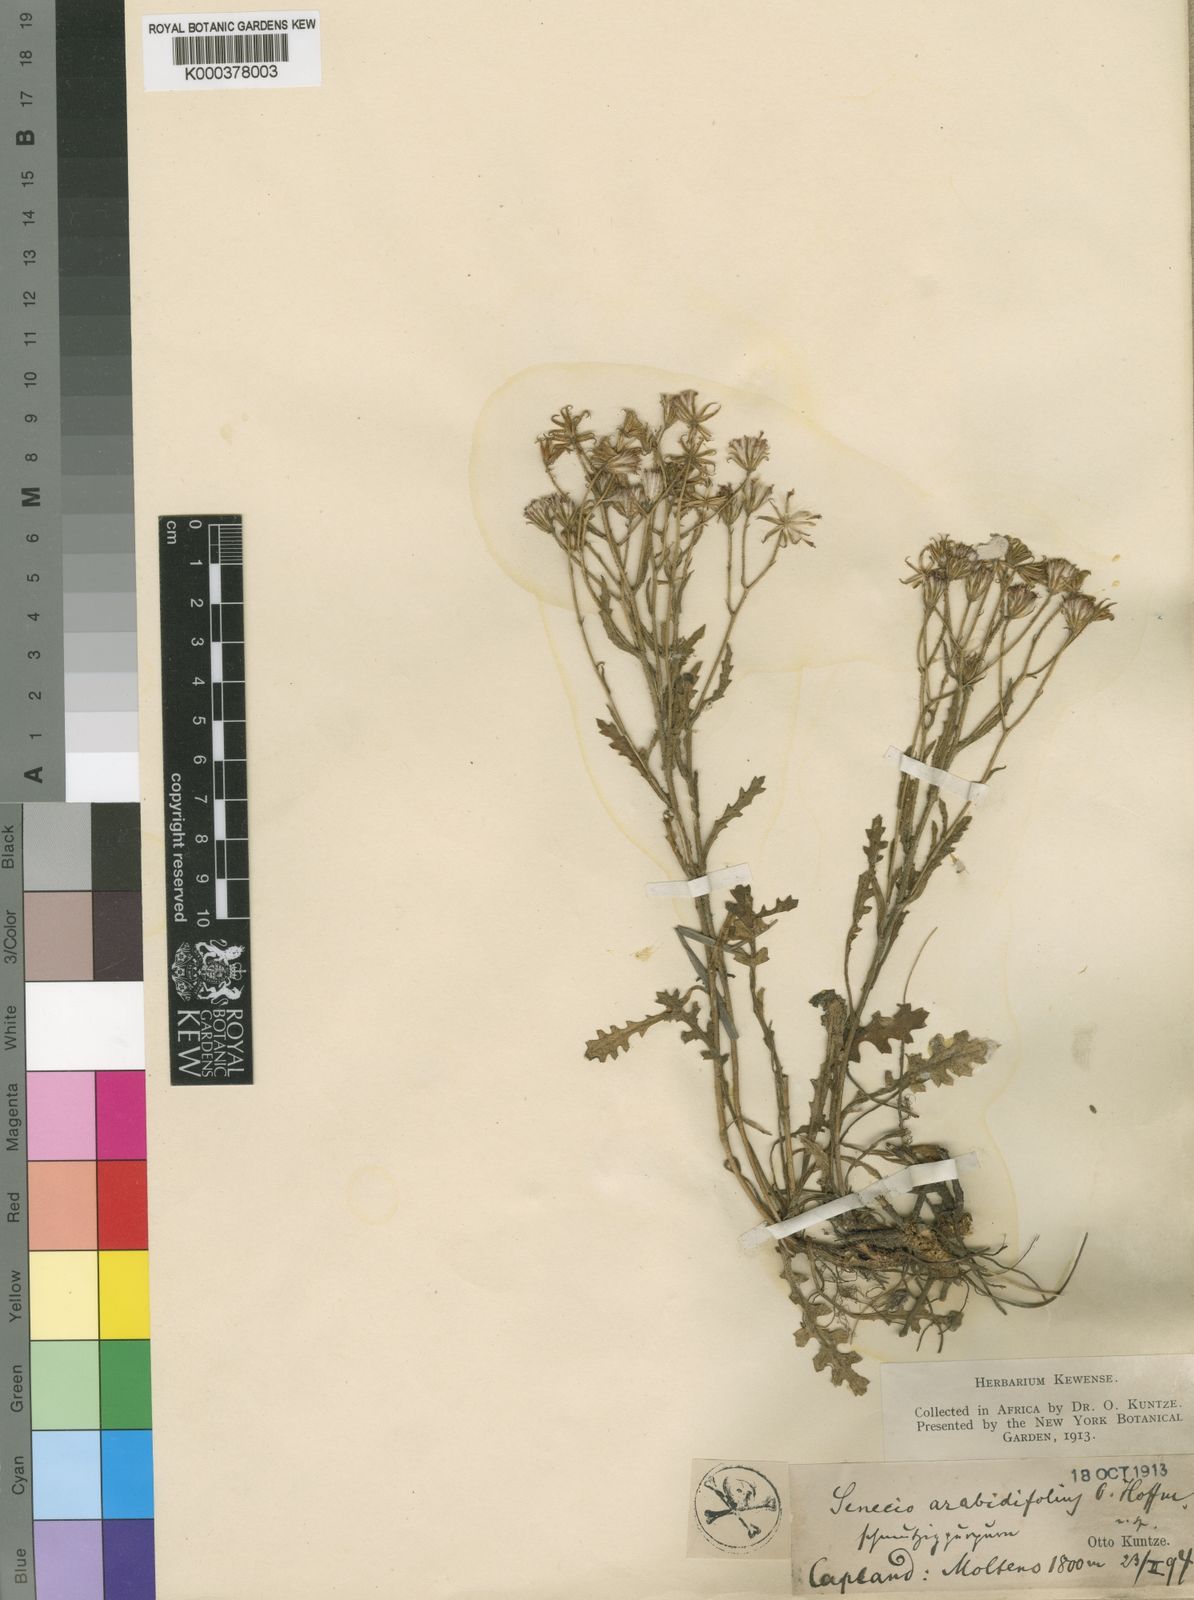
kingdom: Plantae
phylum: Tracheophyta
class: Magnoliopsida
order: Asterales
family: Asteraceae
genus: Senecio
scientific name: Senecio arabidifolius
